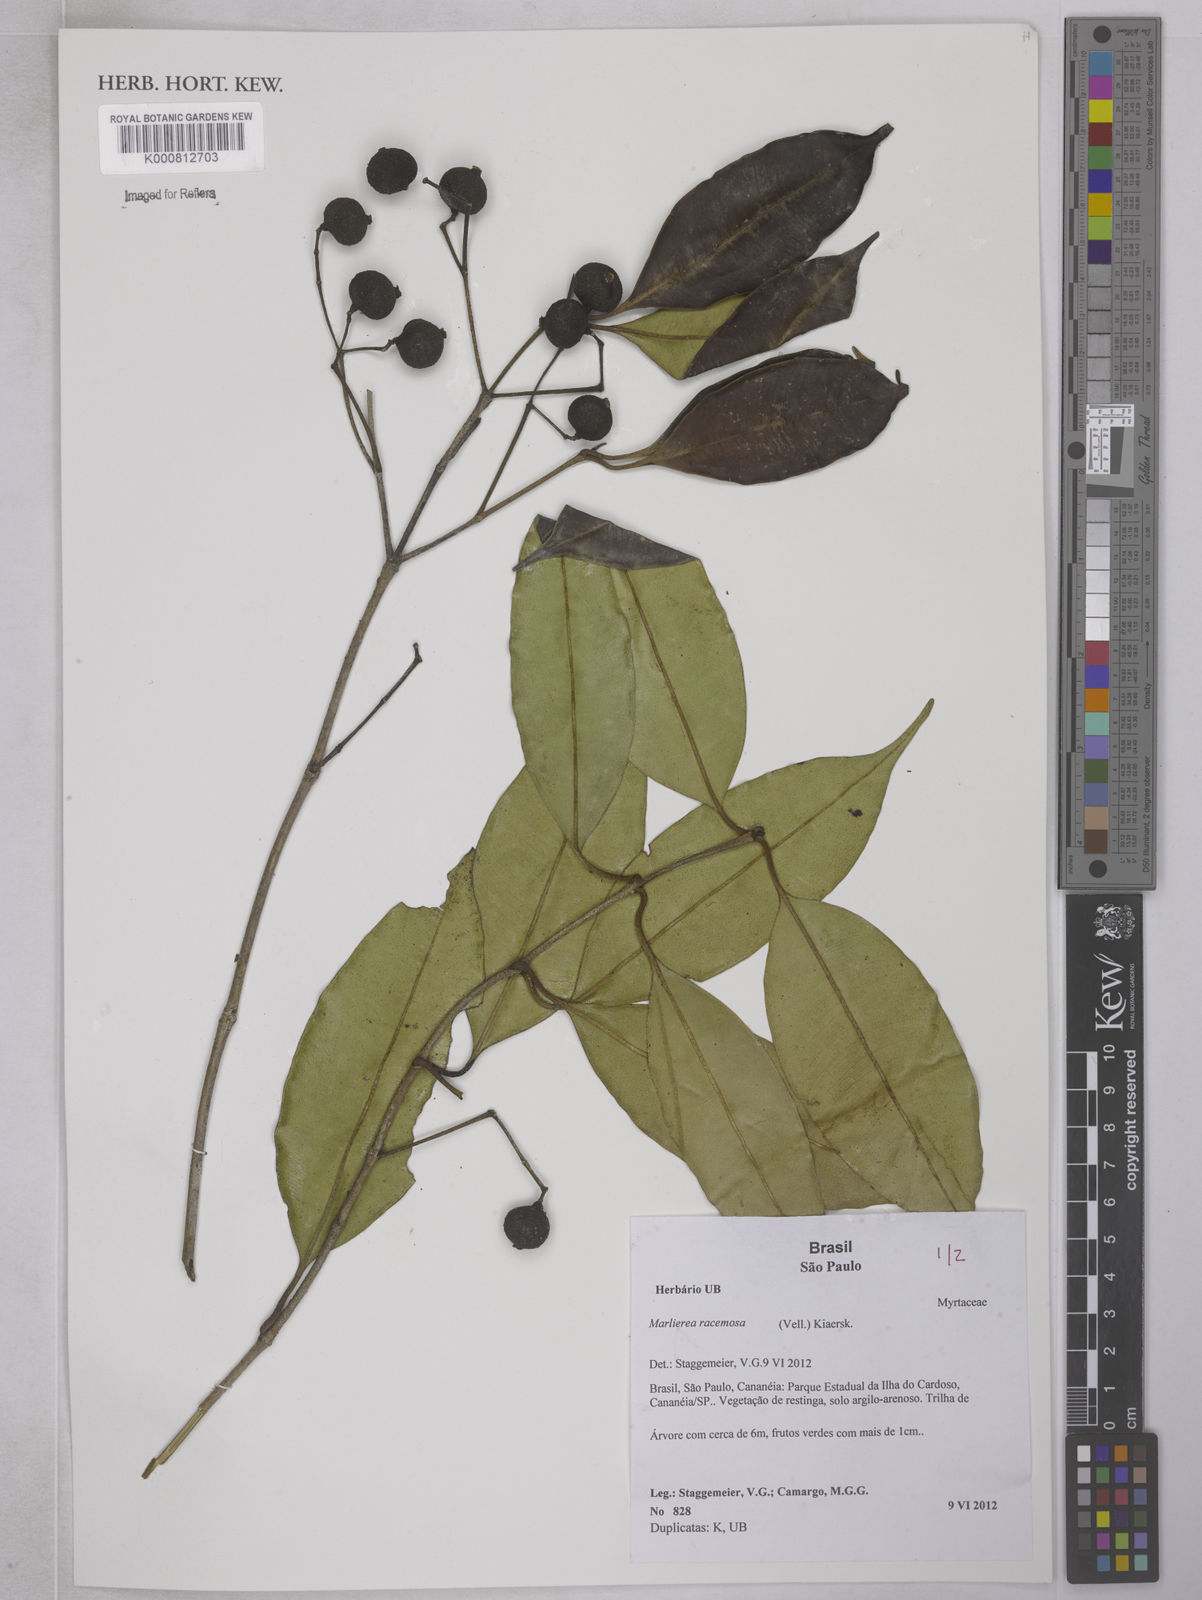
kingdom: Plantae
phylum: Tracheophyta
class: Magnoliopsida
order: Myrtales
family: Myrtaceae
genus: Myrcia
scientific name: Myrcia vellozoi
